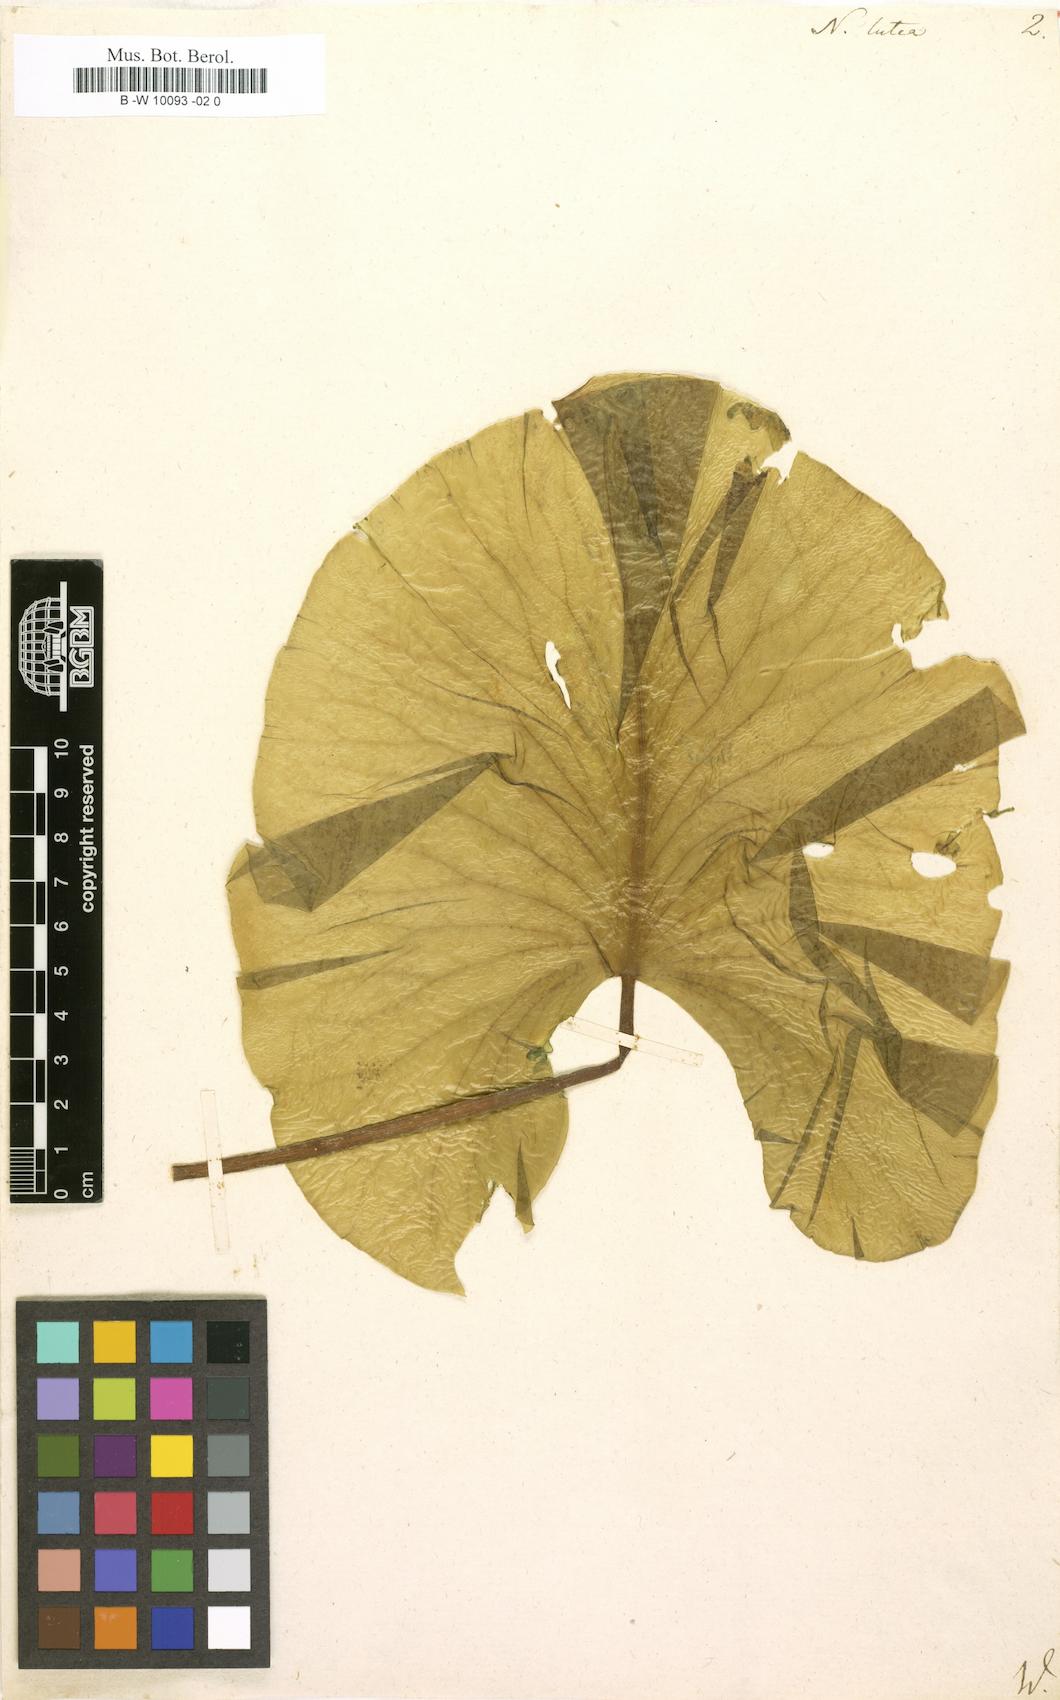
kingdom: Plantae
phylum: Tracheophyta
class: Magnoliopsida
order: Nymphaeales
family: Nymphaeaceae
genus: Nymphaea
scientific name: Nymphaea lutea
